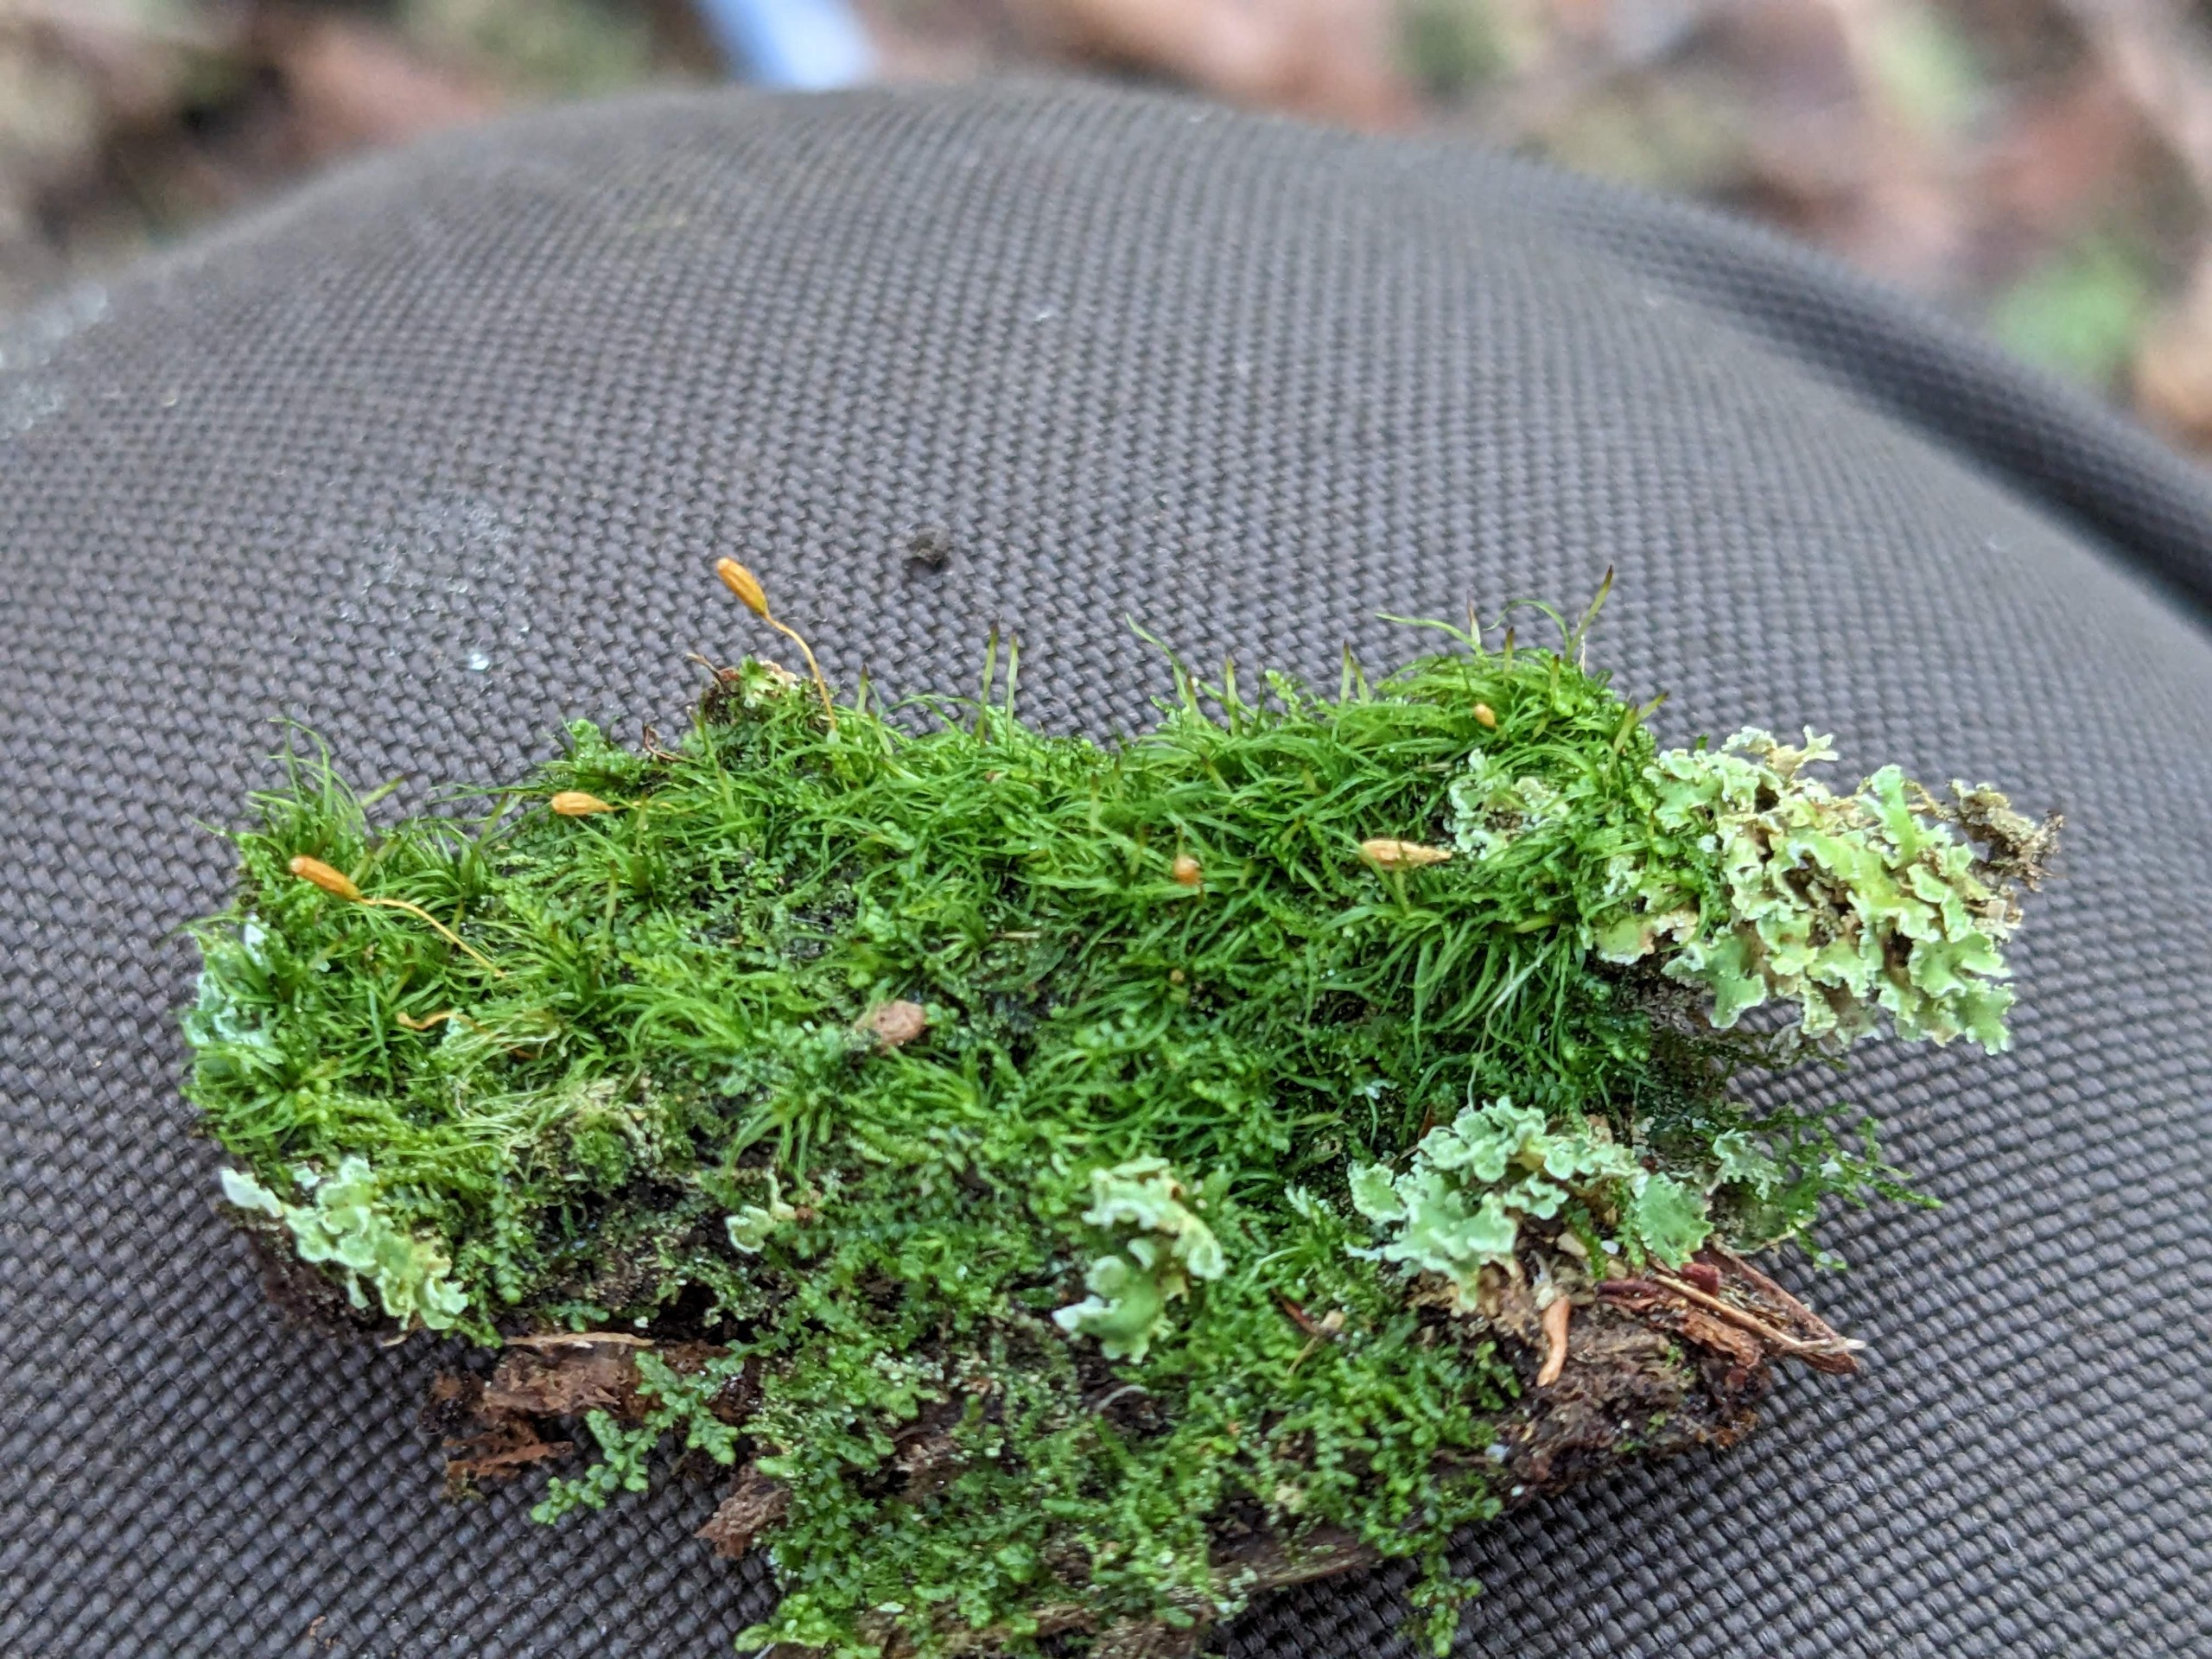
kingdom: Plantae
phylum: Bryophyta
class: Bryopsida
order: Orthodontiales
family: Orthodontiaceae
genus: Orthodontium
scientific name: Orthodontium lineare
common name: Smalbladet plysmos
